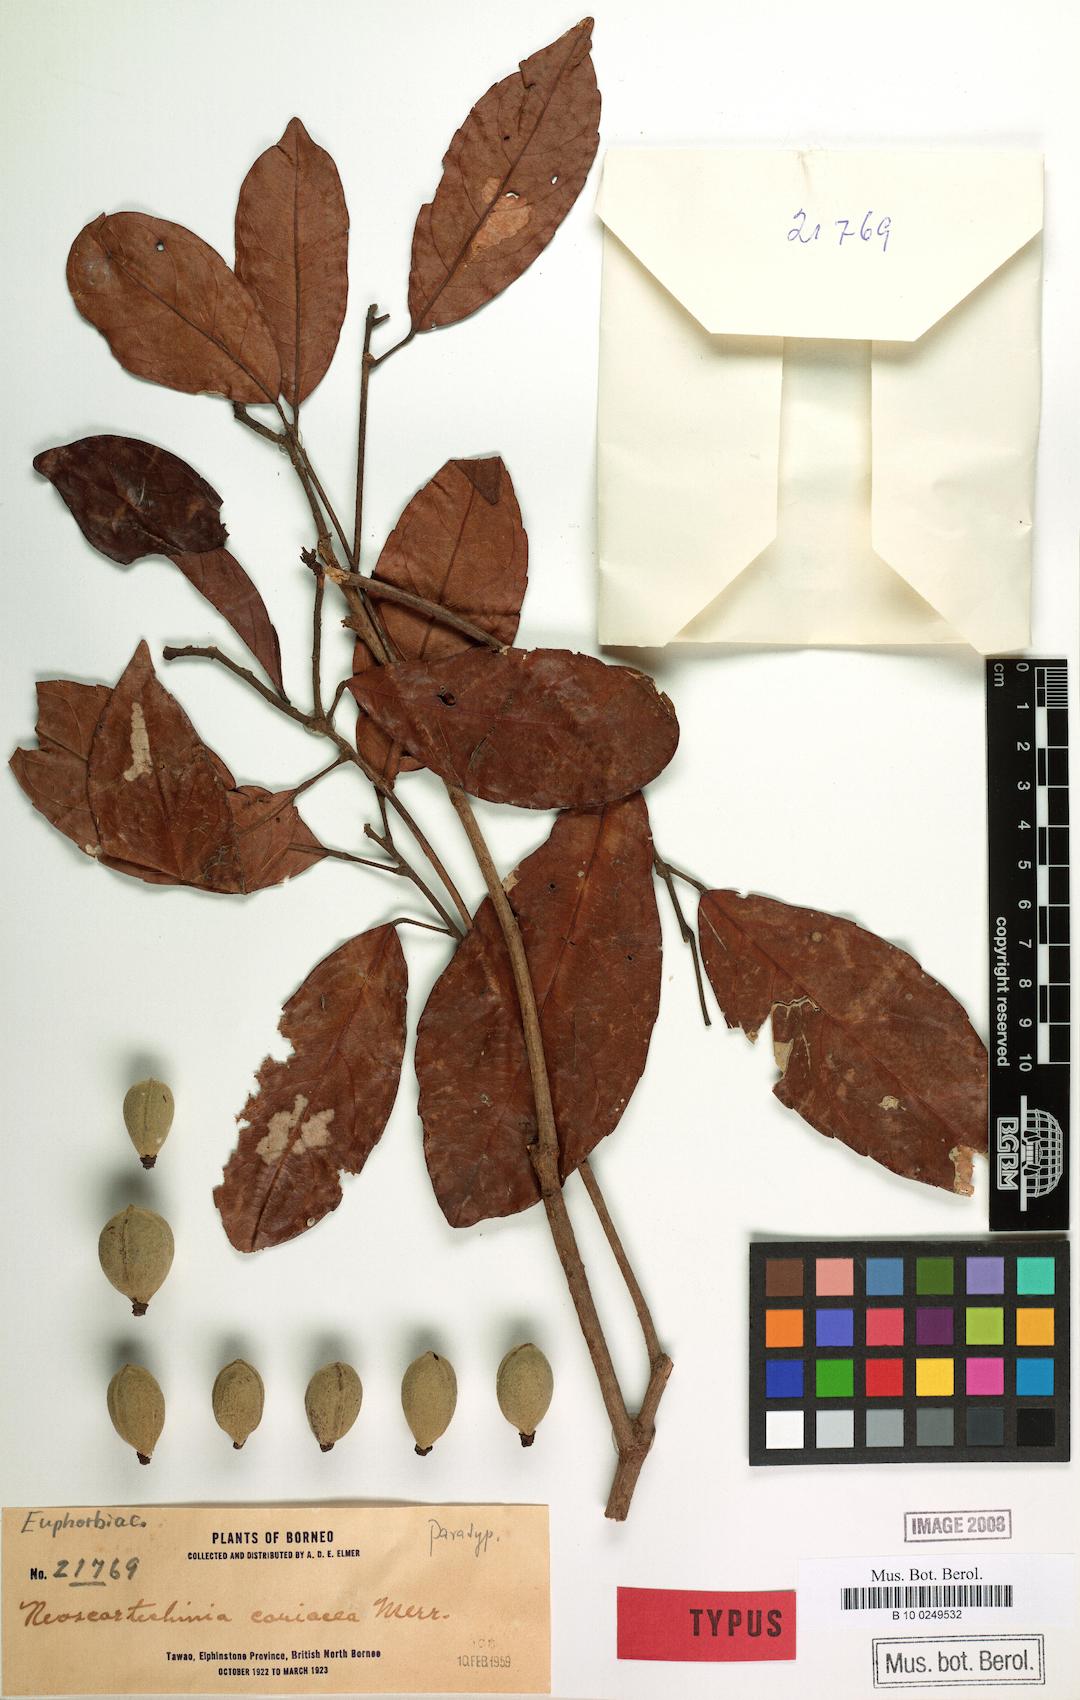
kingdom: Plantae
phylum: Tracheophyta
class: Magnoliopsida
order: Malpighiales
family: Euphorbiaceae
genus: Neoscortechinia
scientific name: Neoscortechinia philippinensis
